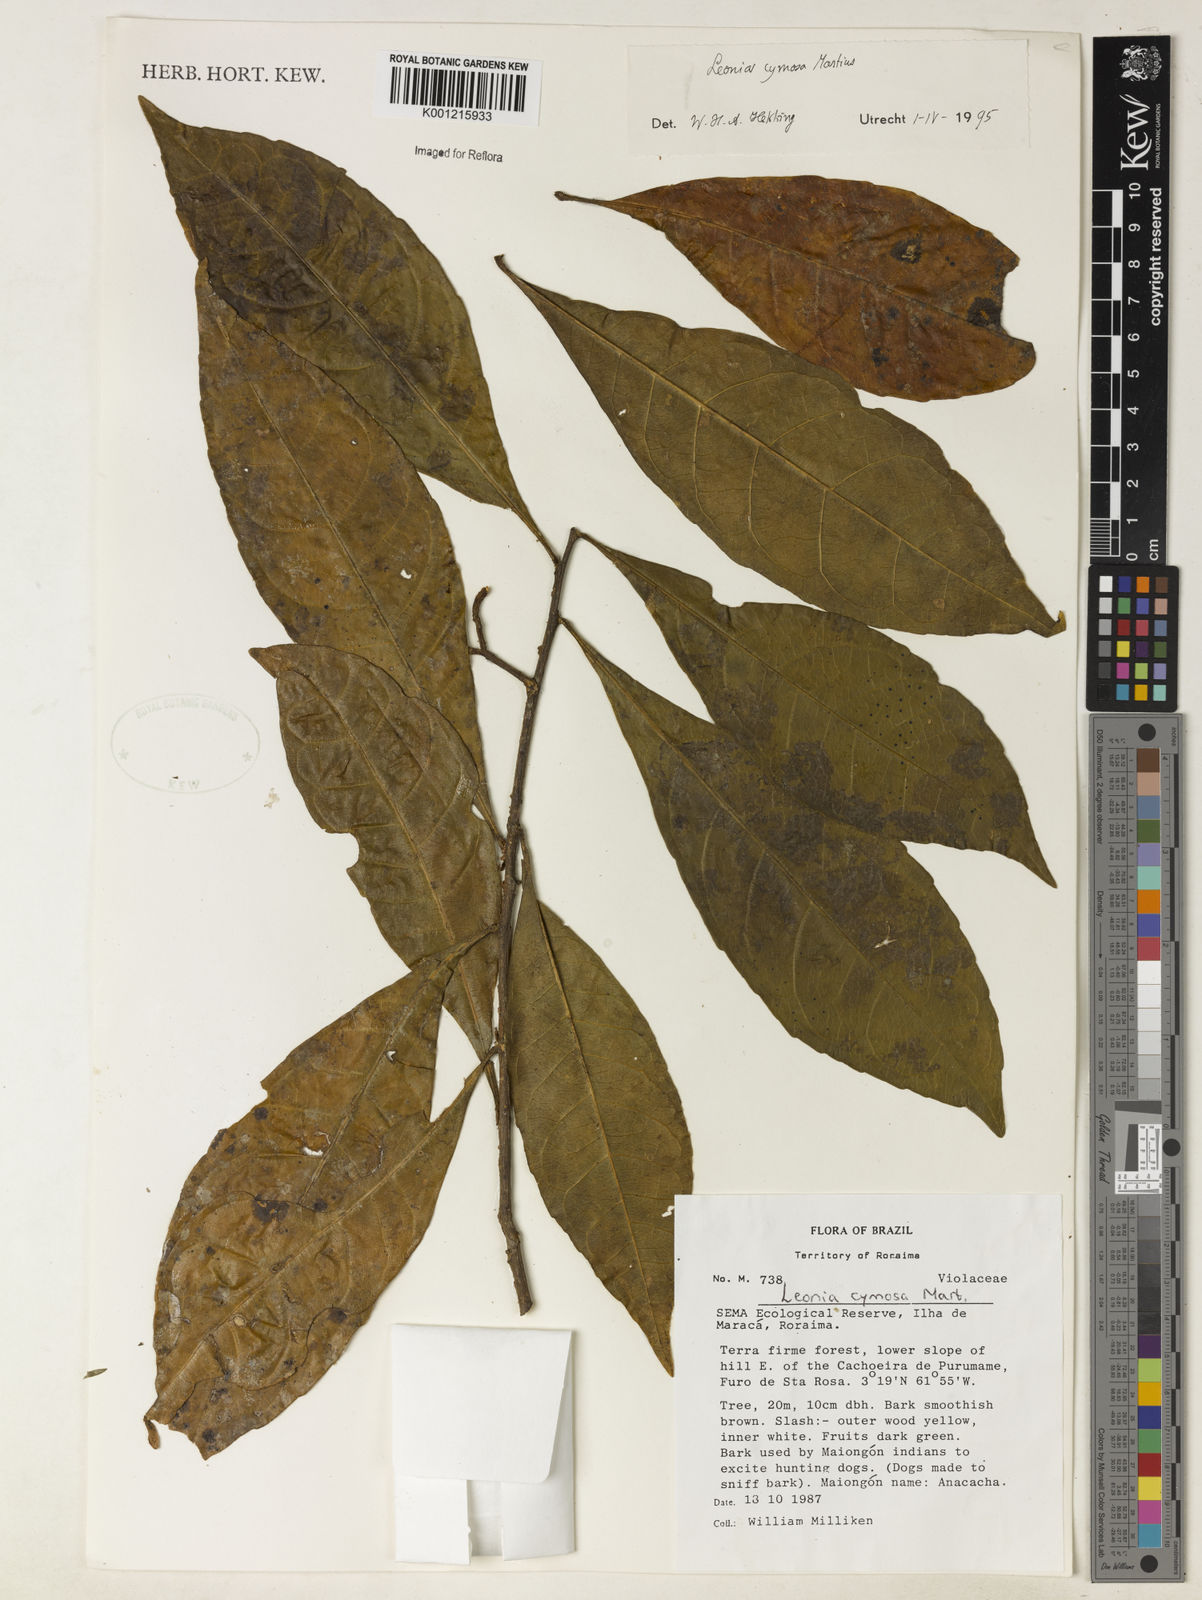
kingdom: Plantae
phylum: Tracheophyta
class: Magnoliopsida
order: Malpighiales
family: Violaceae
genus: Leonia
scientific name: Leonia cymosa
